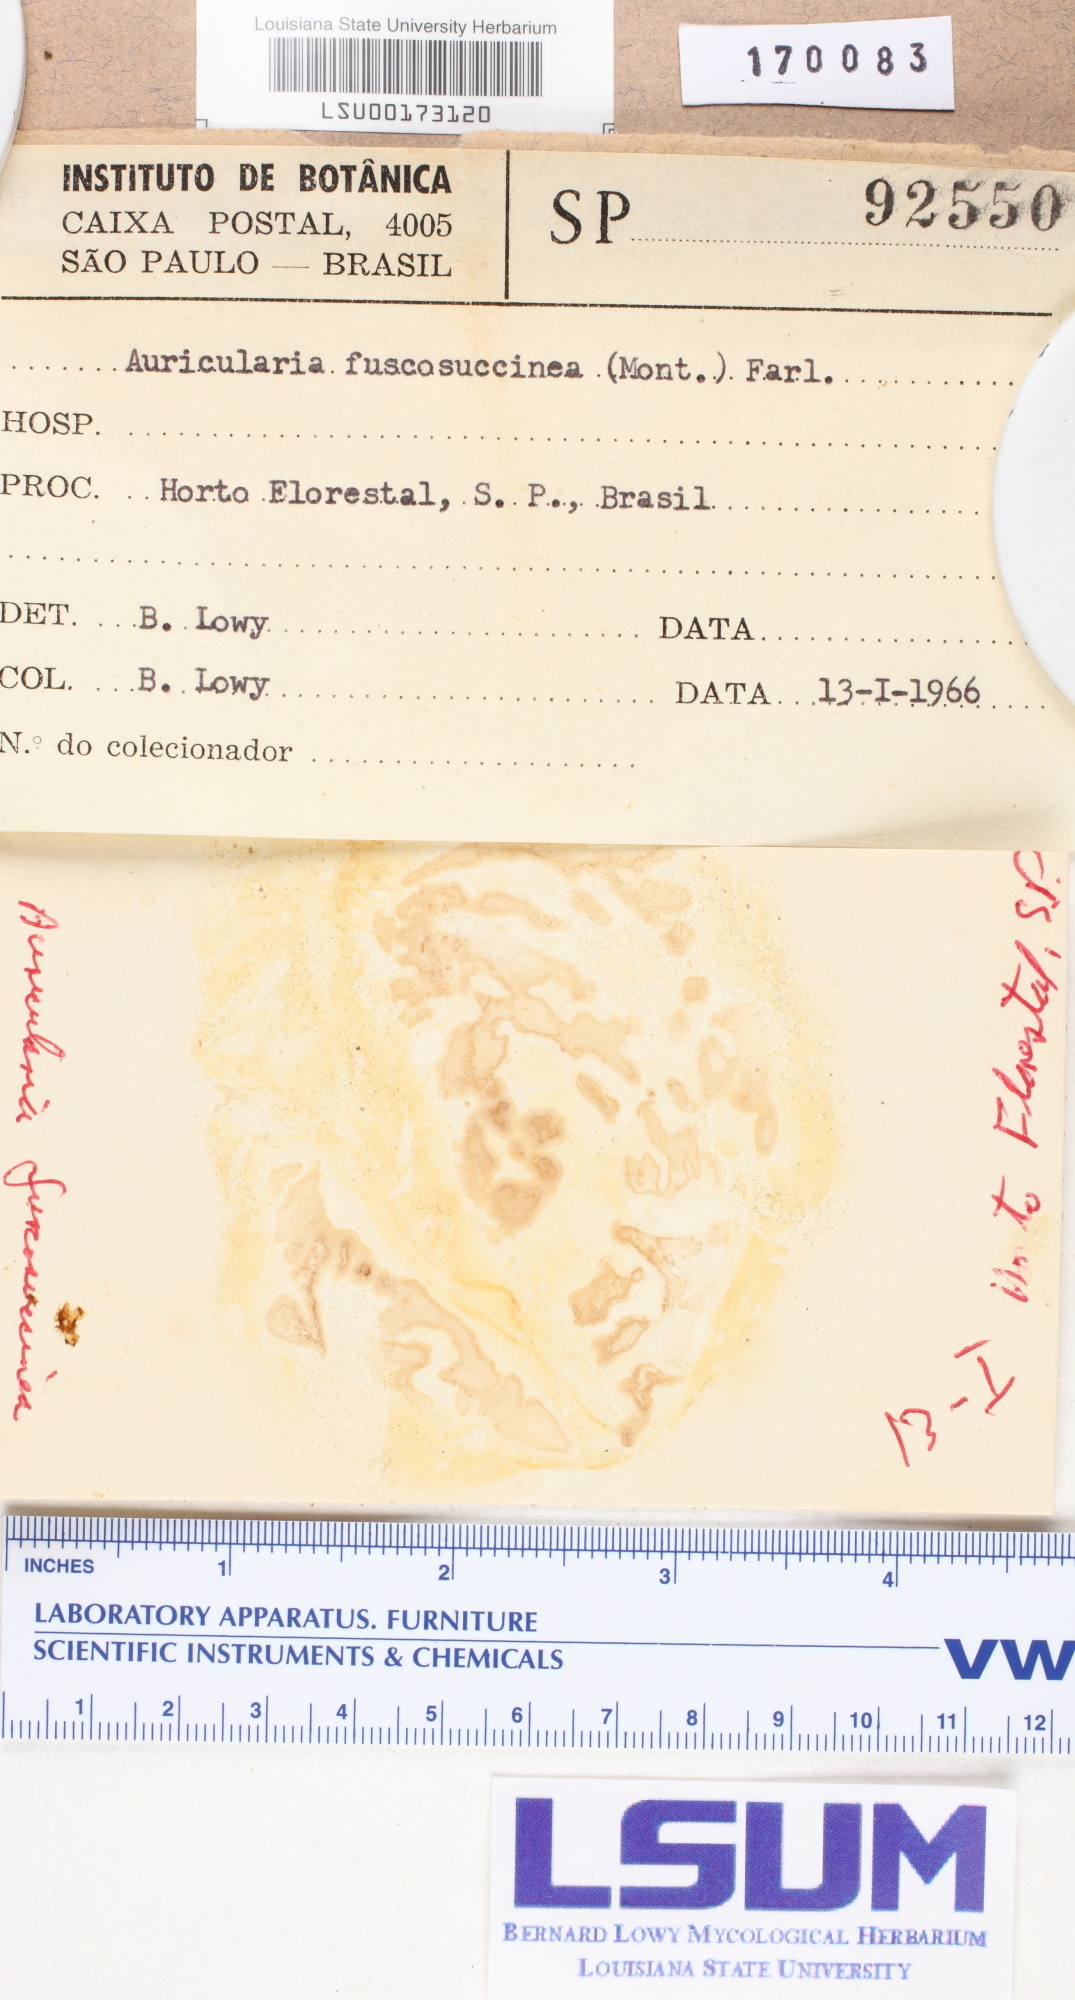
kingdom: Fungi
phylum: Basidiomycota
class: Agaricomycetes
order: Auriculariales
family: Auriculariaceae
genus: Auricularia
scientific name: Auricularia fuscosuccinea
